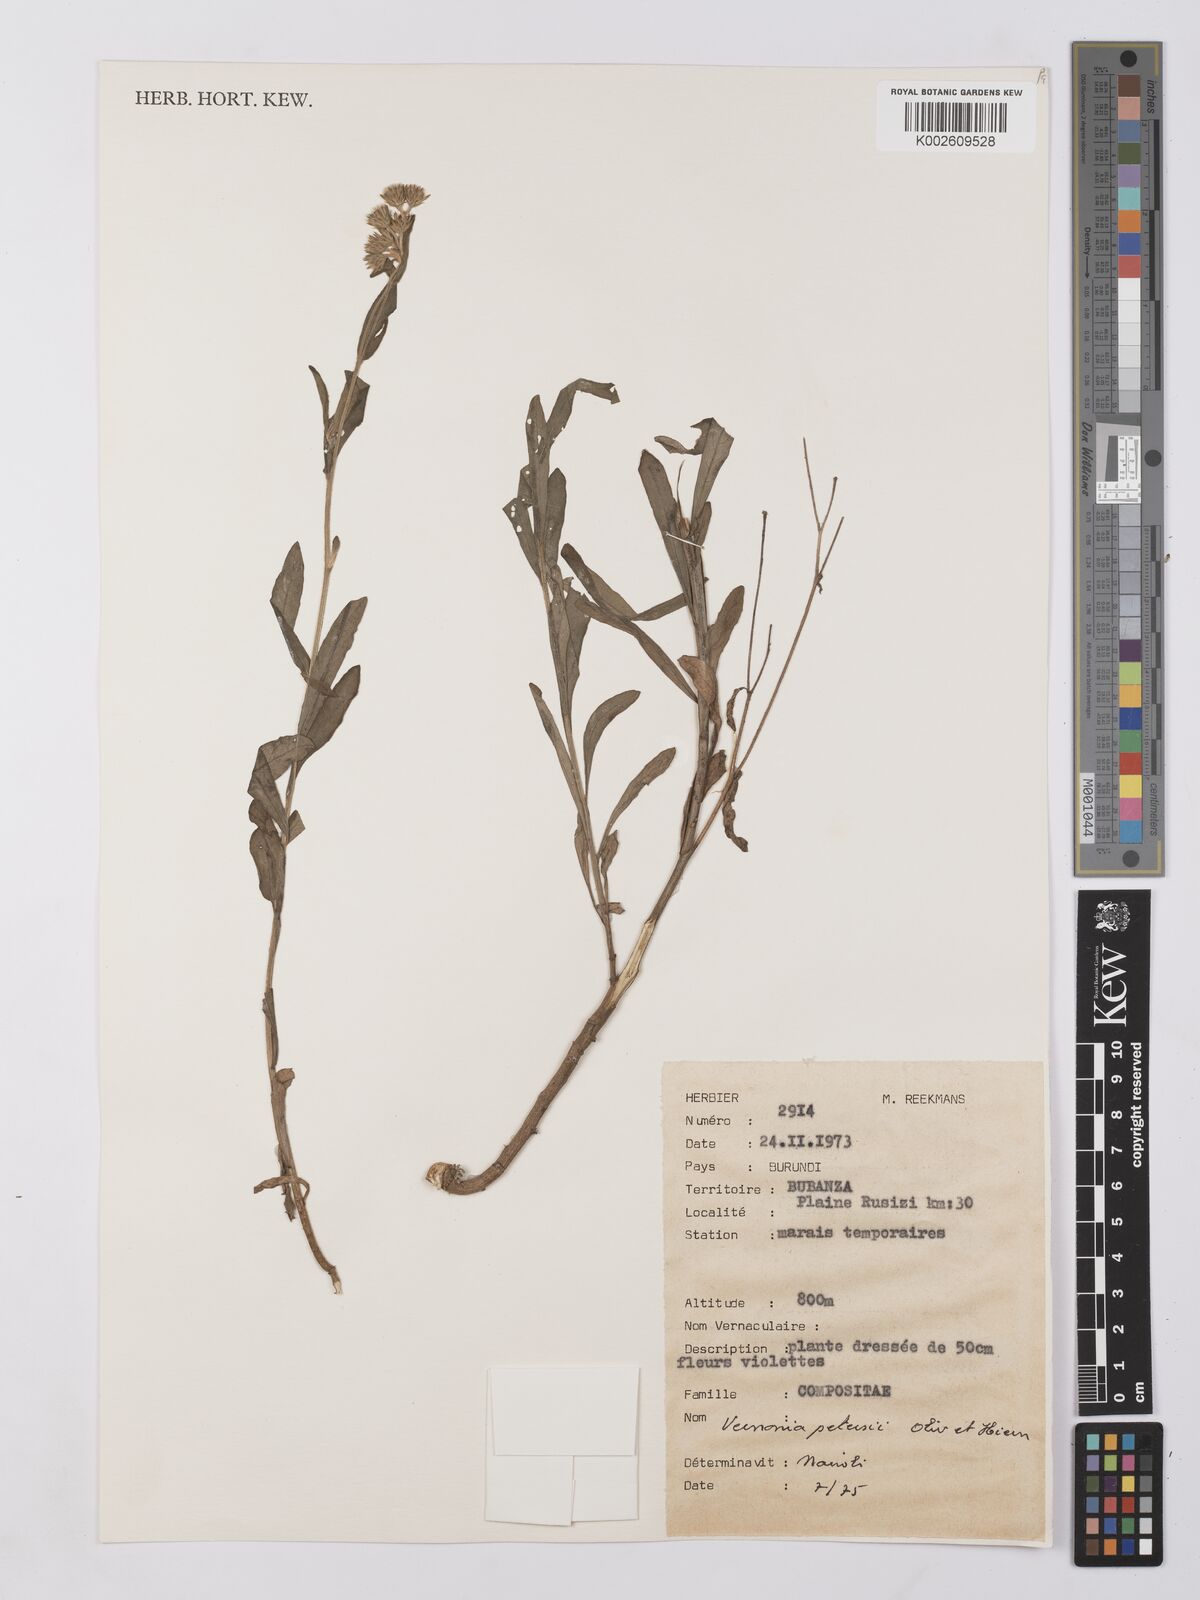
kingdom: Plantae
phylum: Tracheophyta
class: Magnoliopsida
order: Asterales
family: Asteraceae
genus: Vernonia
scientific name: Vernonia
